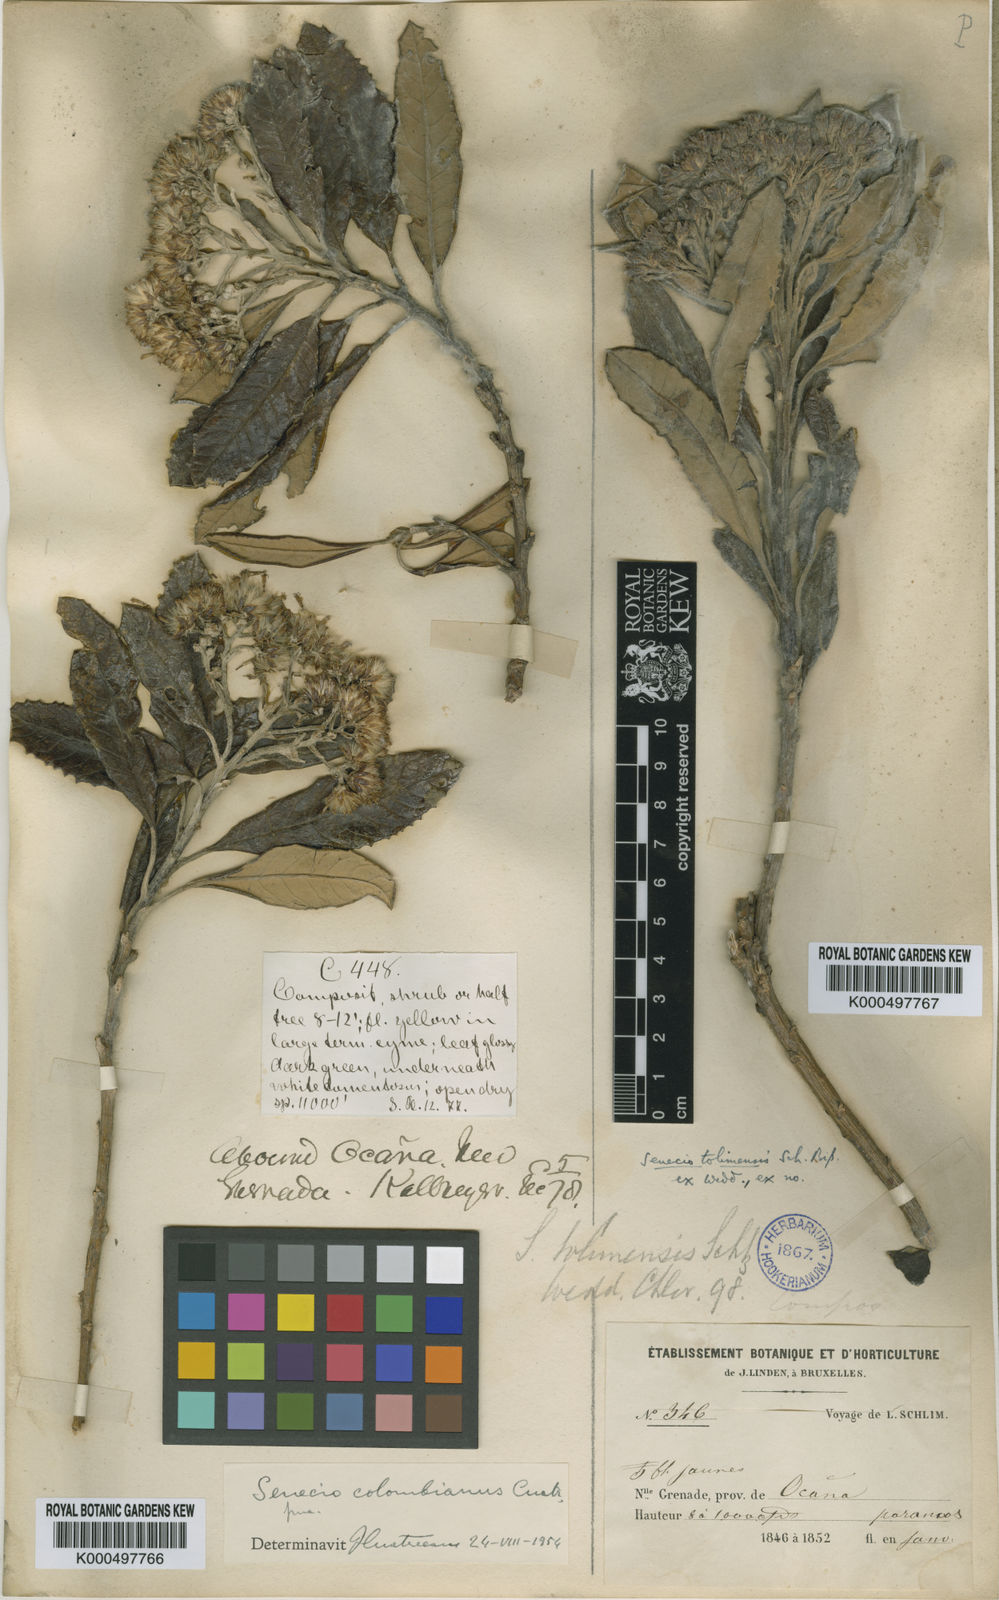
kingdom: Plantae
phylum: Tracheophyta
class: Magnoliopsida
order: Asterales
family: Asteraceae
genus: Monticalia
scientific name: Monticalia tolimensis
